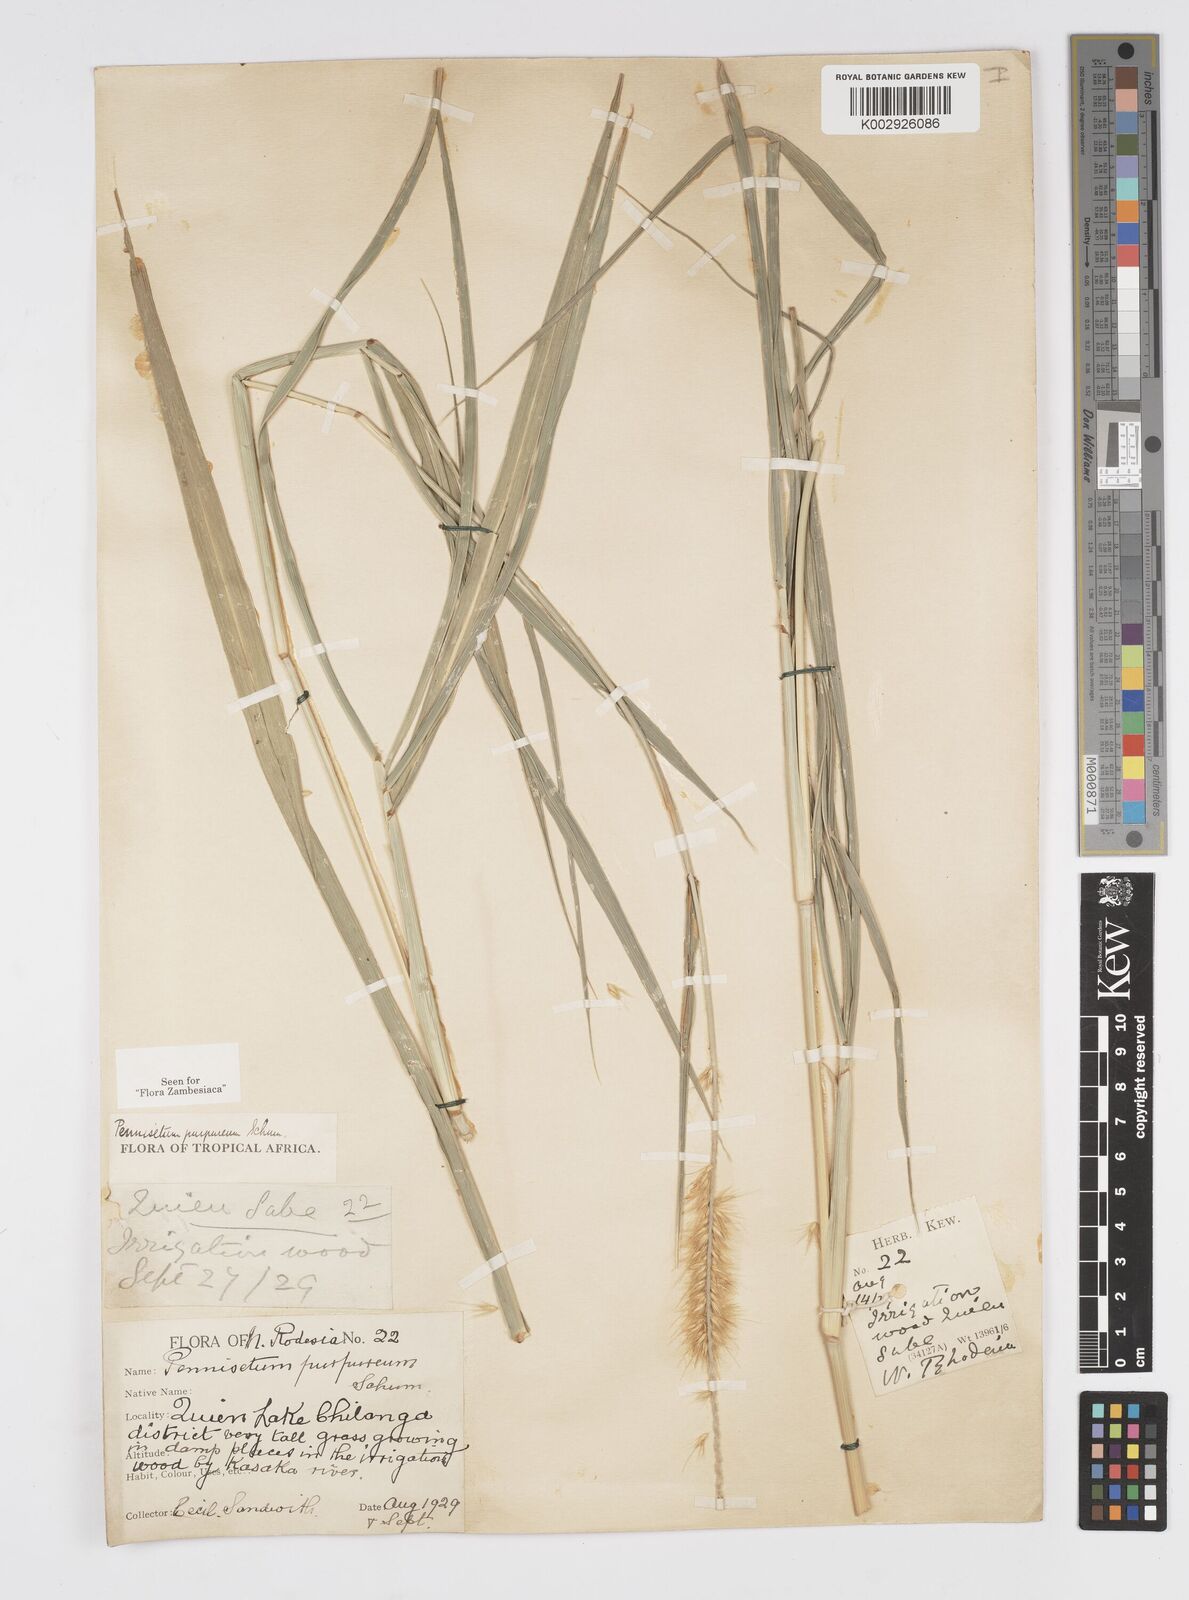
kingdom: Plantae
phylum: Tracheophyta
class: Liliopsida
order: Poales
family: Poaceae
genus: Cenchrus
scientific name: Cenchrus purpureus
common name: Elephant grass
